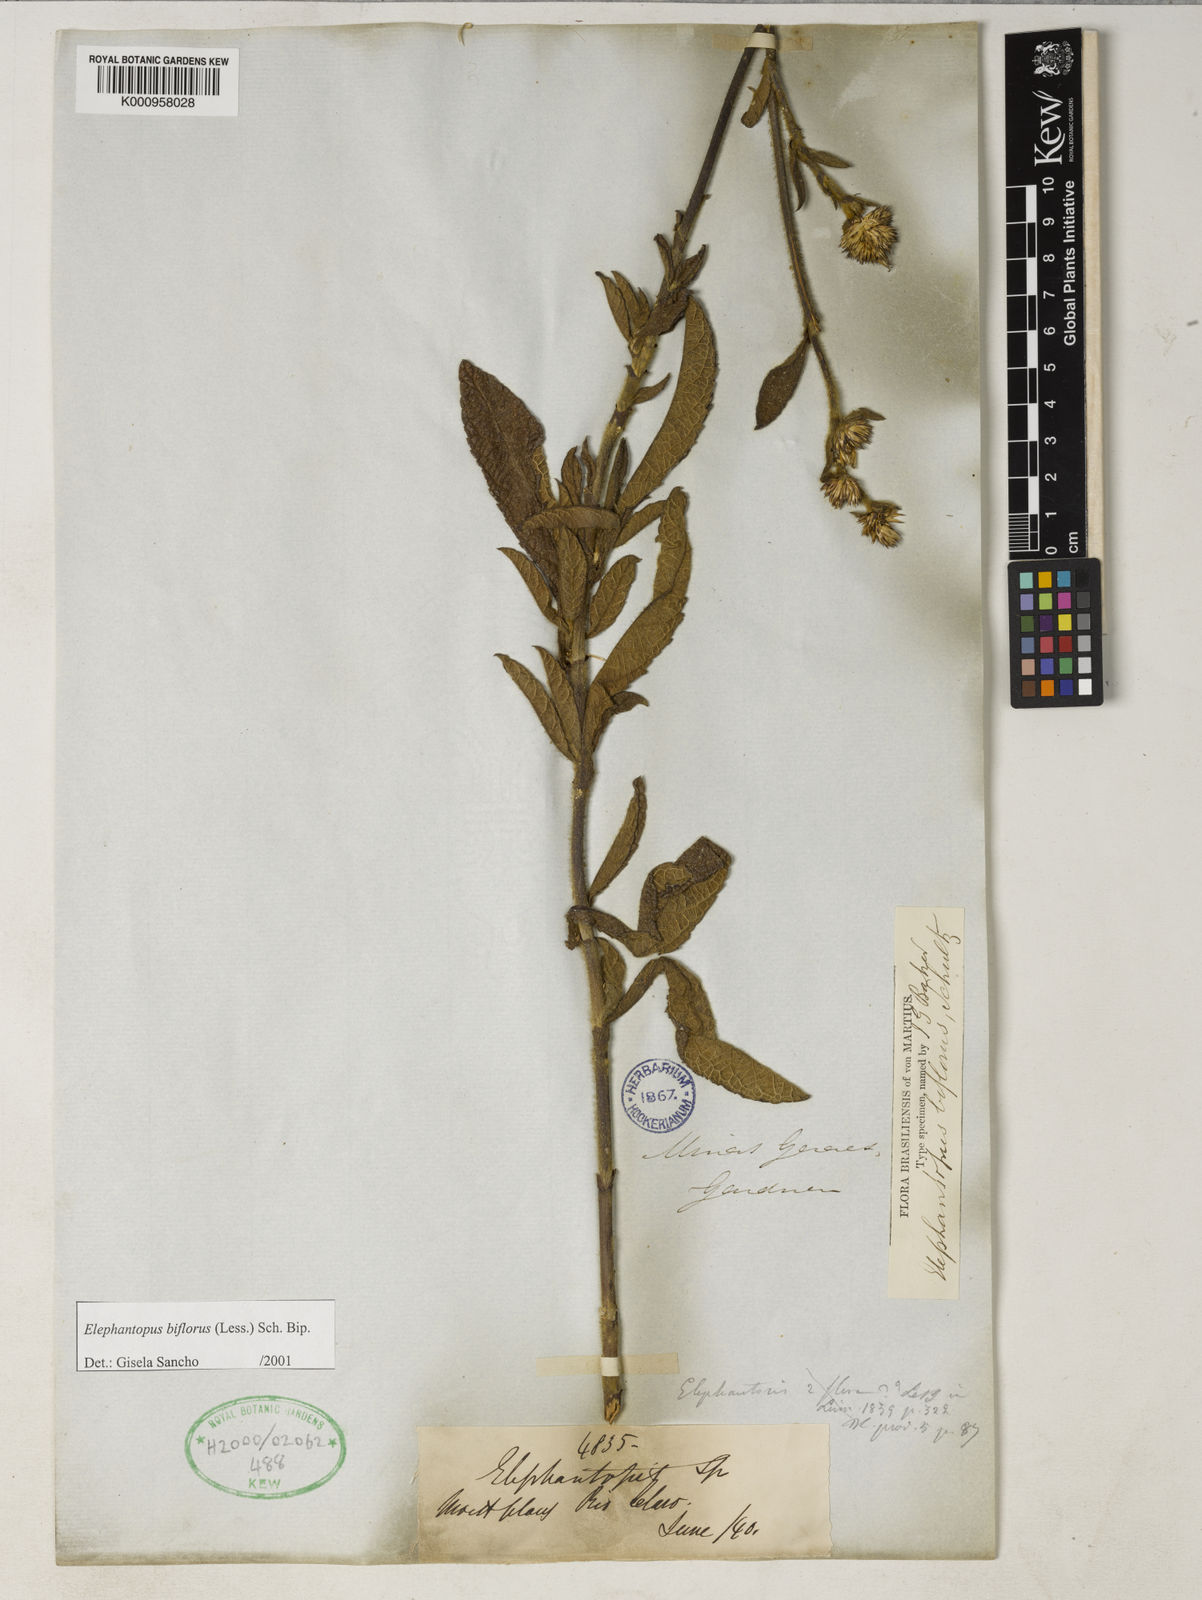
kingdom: Plantae
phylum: Tracheophyta
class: Magnoliopsida
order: Asterales
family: Asteraceae
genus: Elephantopus
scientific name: Elephantopus biflorus
